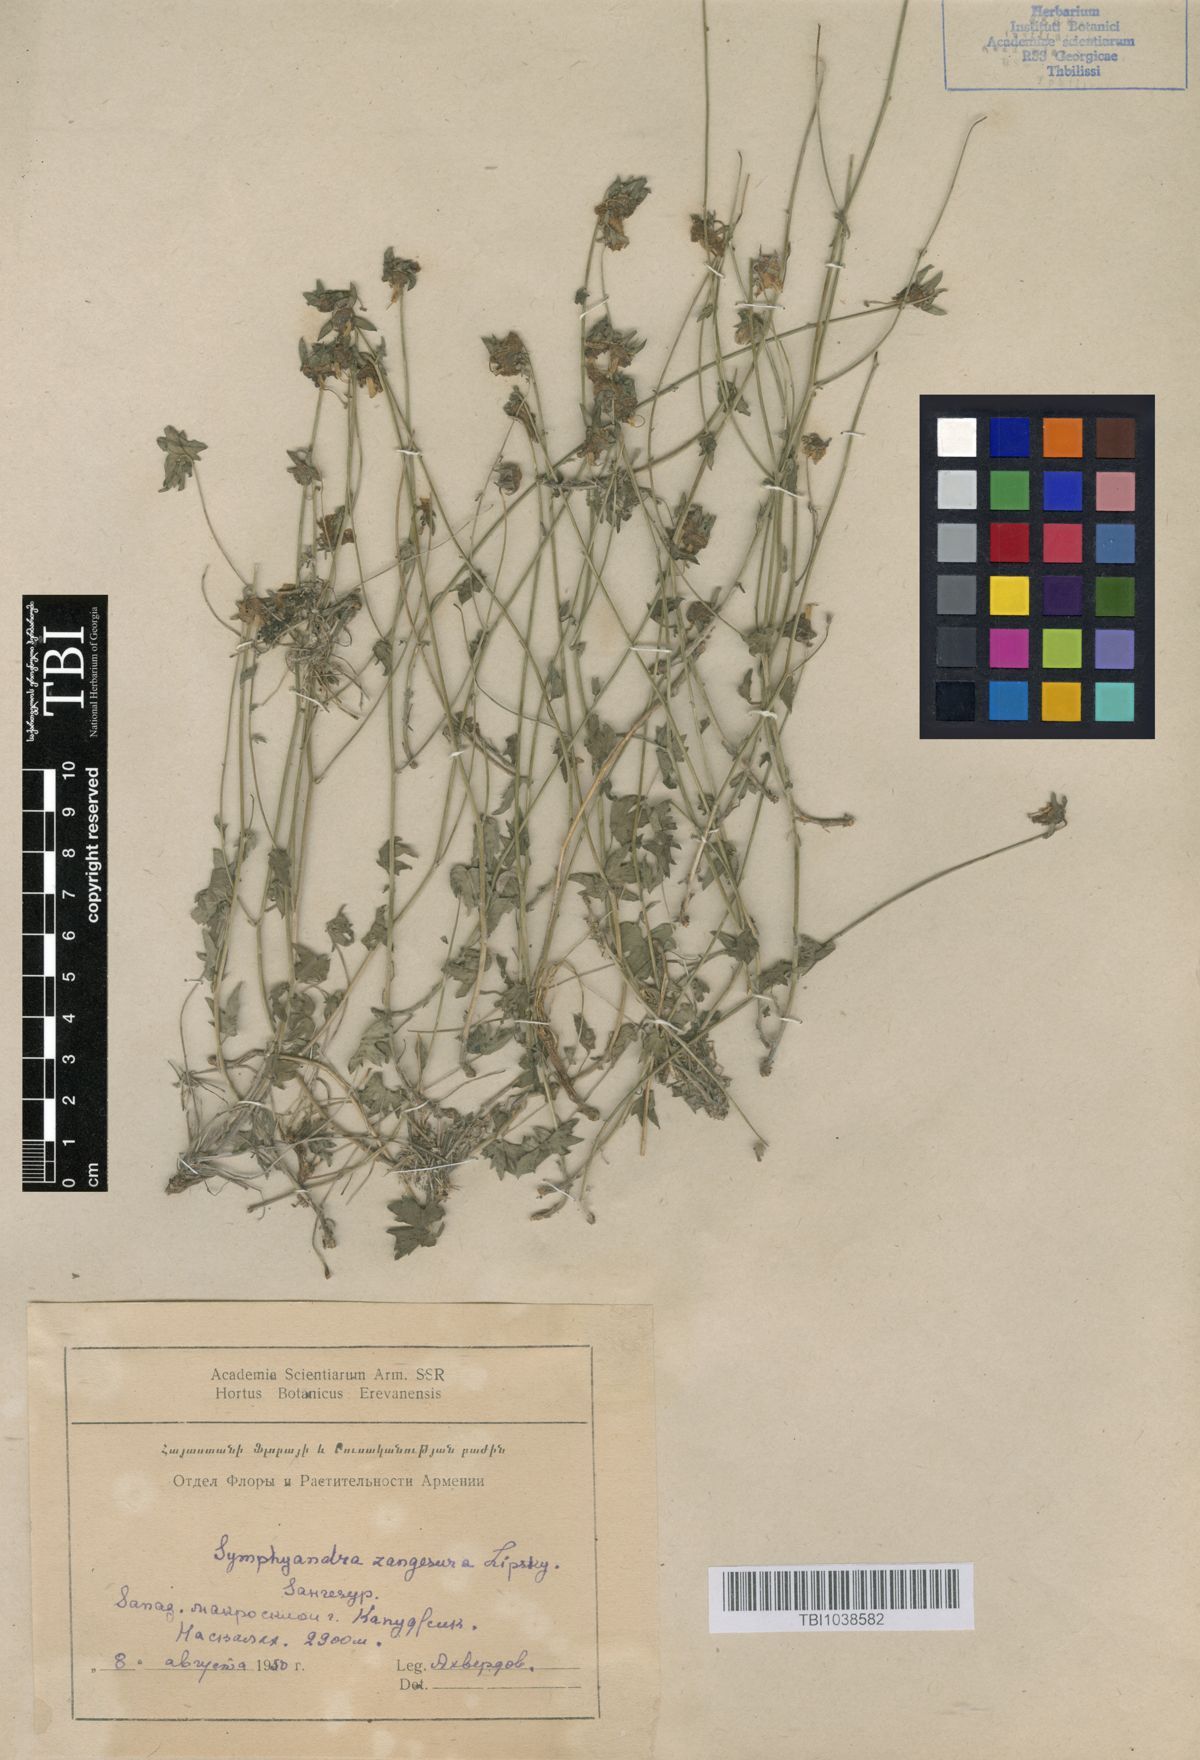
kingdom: Plantae
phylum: Tracheophyta
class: Magnoliopsida
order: Asterales
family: Campanulaceae
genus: Campanula
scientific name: Campanula zangezura
